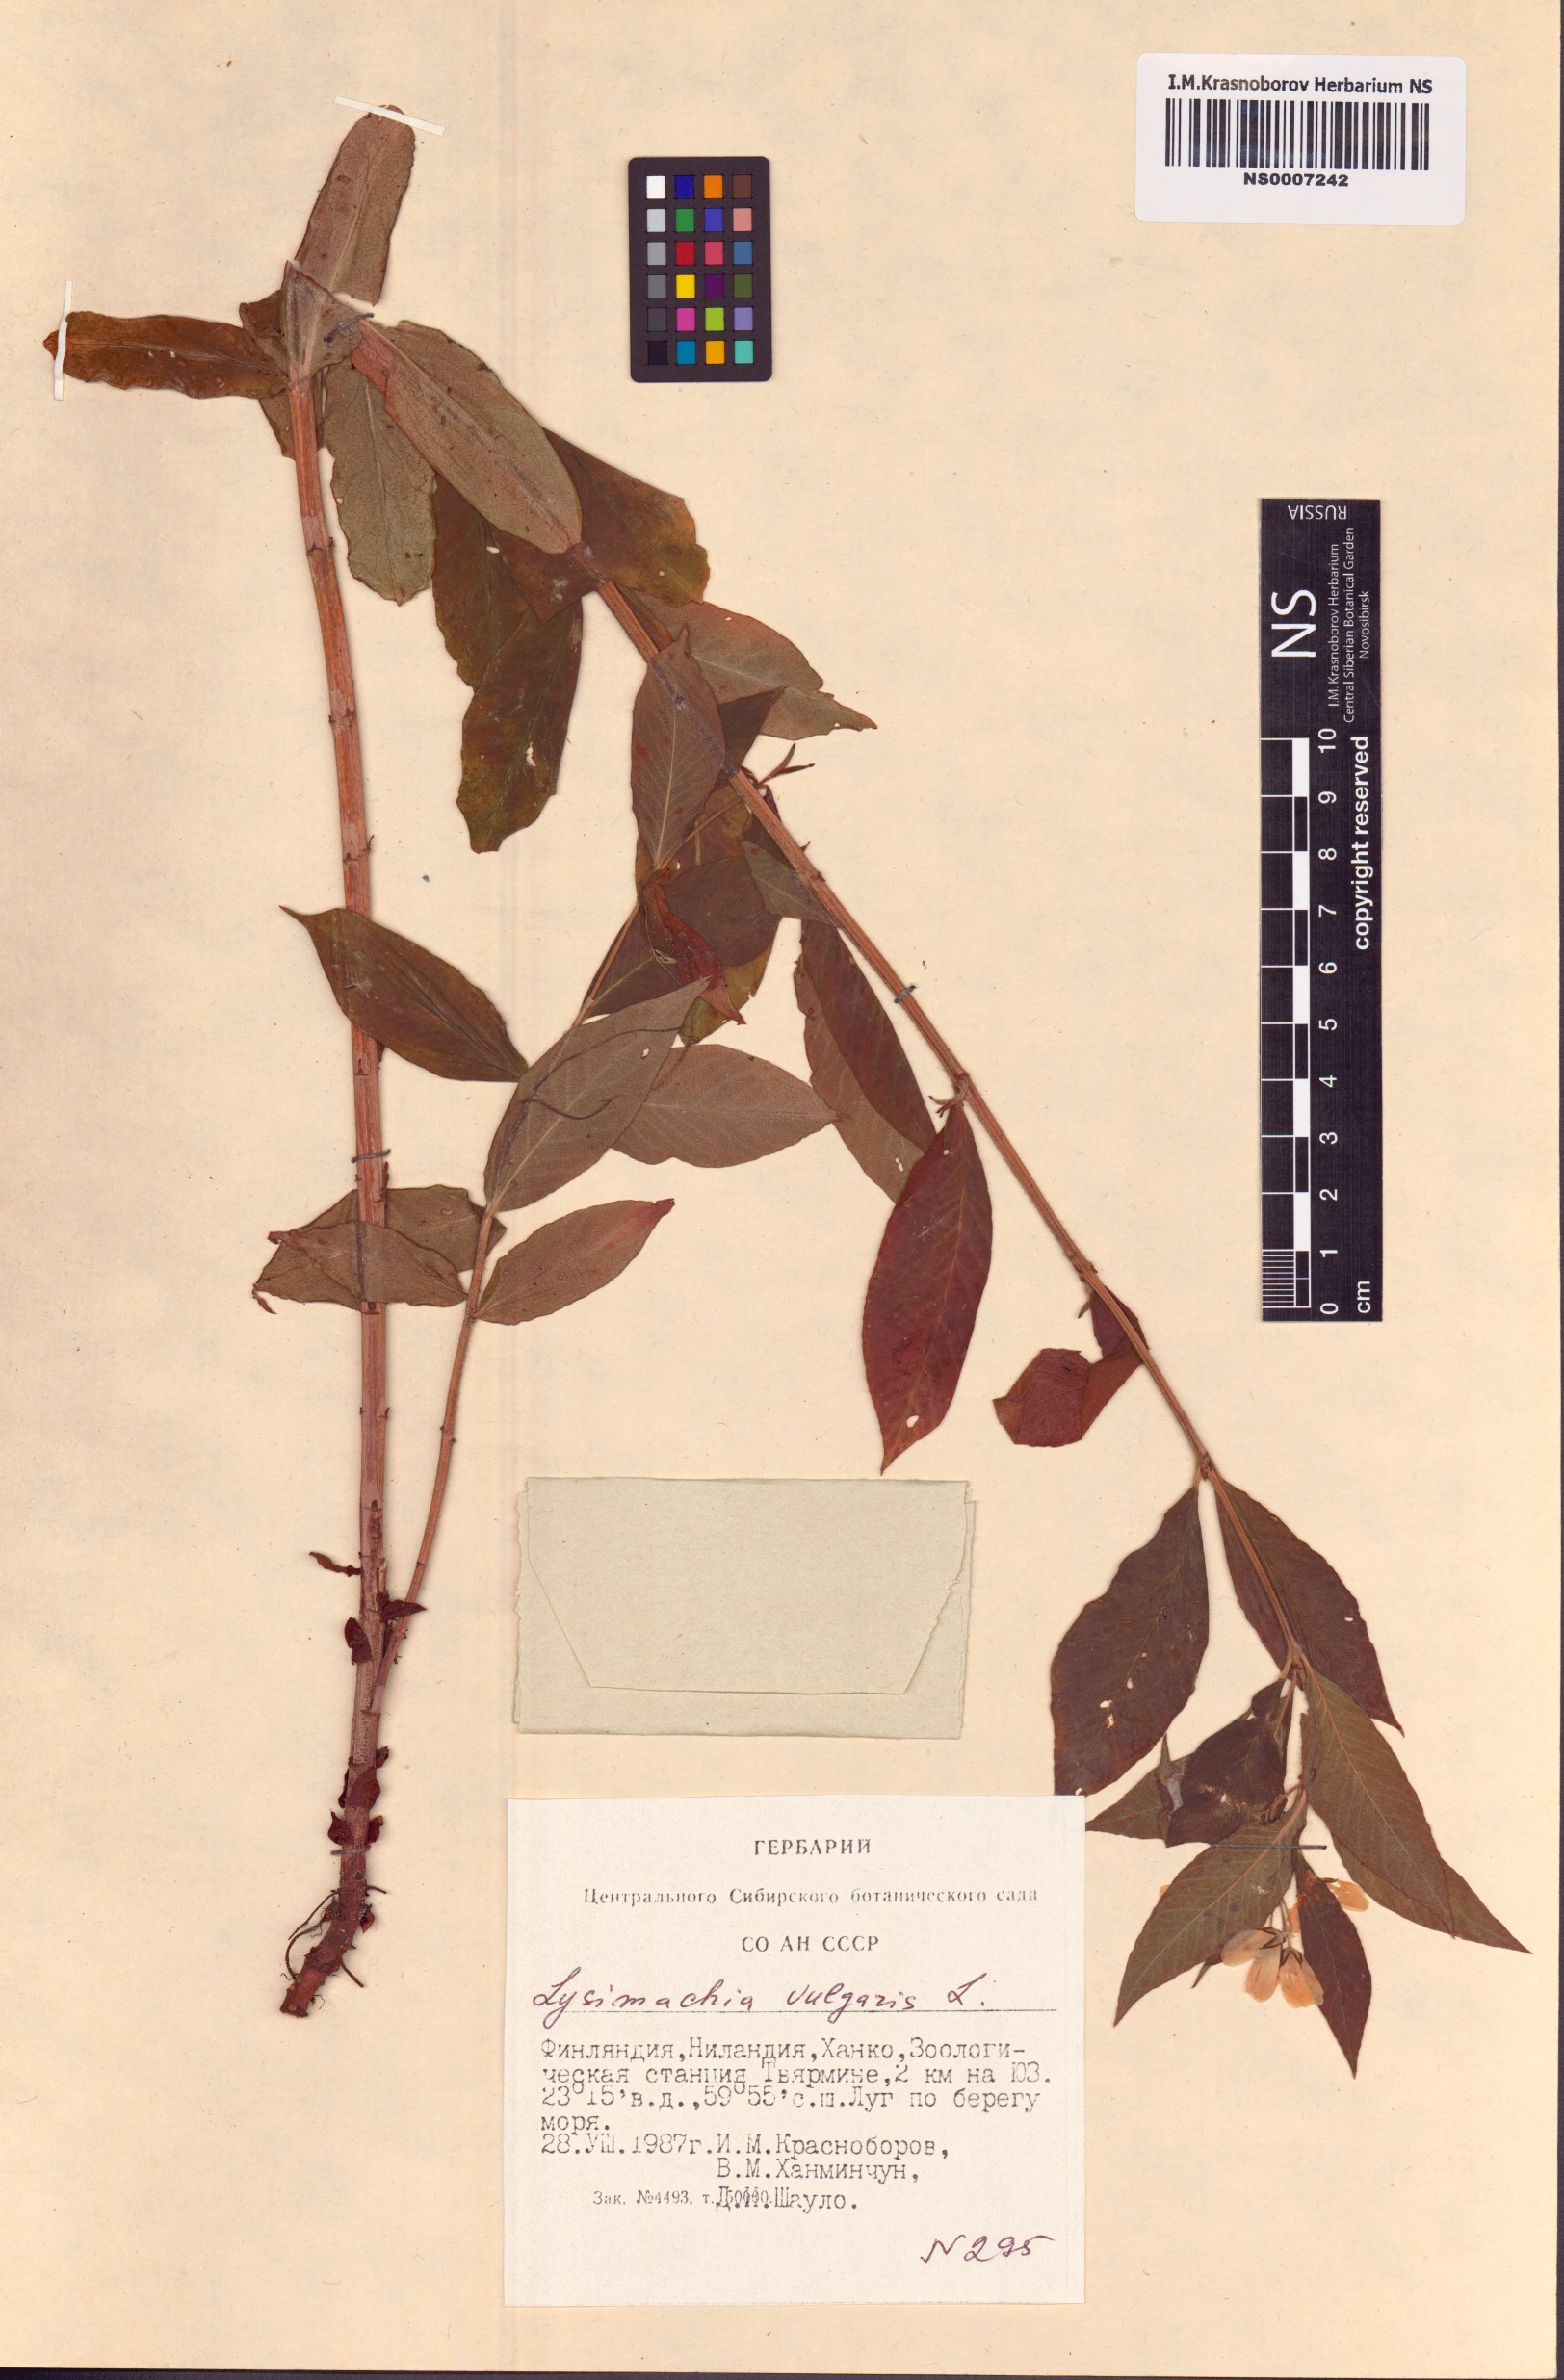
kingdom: Plantae
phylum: Tracheophyta
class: Magnoliopsida
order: Ericales
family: Primulaceae
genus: Lysimachia
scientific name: Lysimachia vulgaris
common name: Yellow loosestrife
